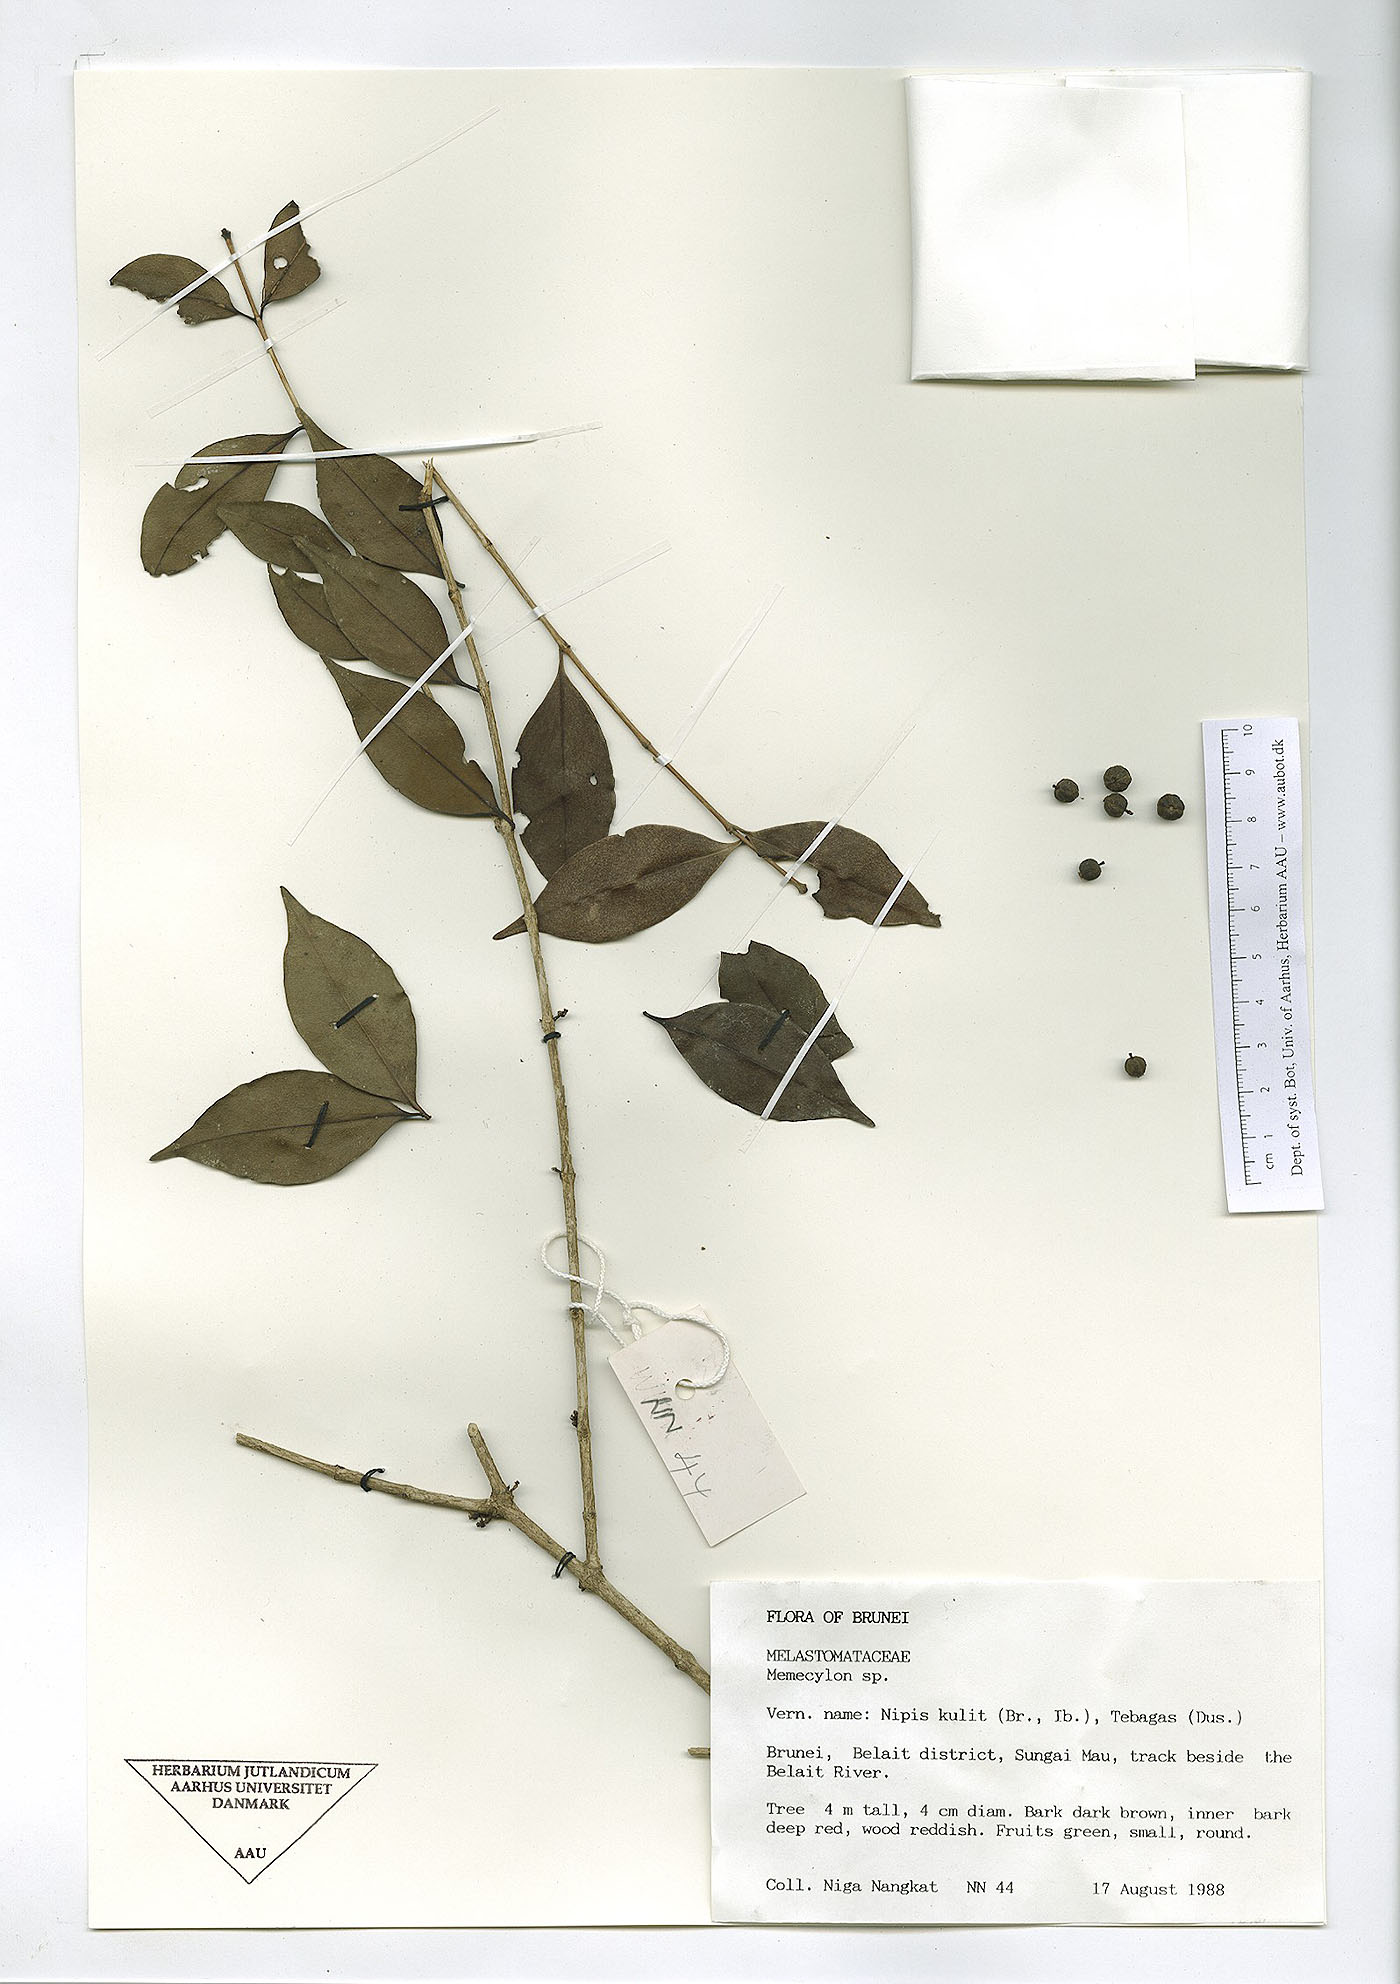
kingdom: Plantae
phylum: Tracheophyta
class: Magnoliopsida
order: Myrtales
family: Melastomataceae
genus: Memecylon
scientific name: Memecylon
